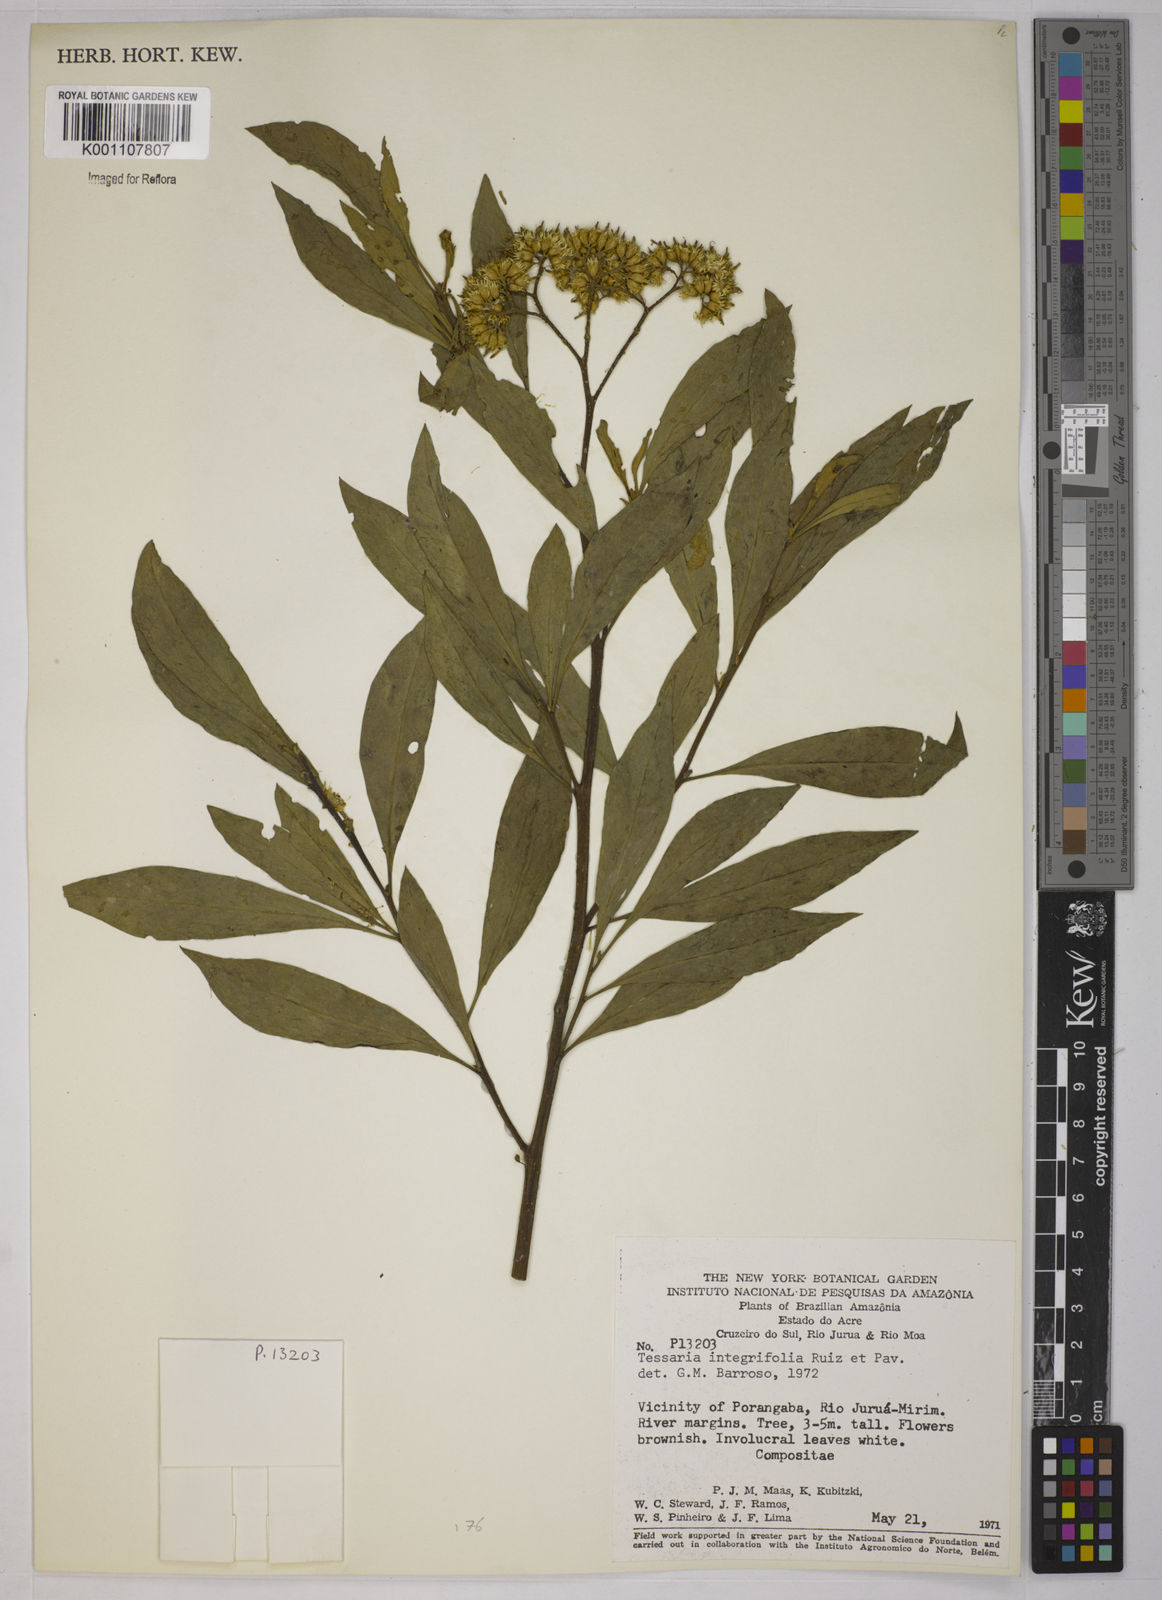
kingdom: Plantae
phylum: Tracheophyta
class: Magnoliopsida
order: Asterales
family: Asteraceae
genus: Tessaria
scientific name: Tessaria integrifolia
